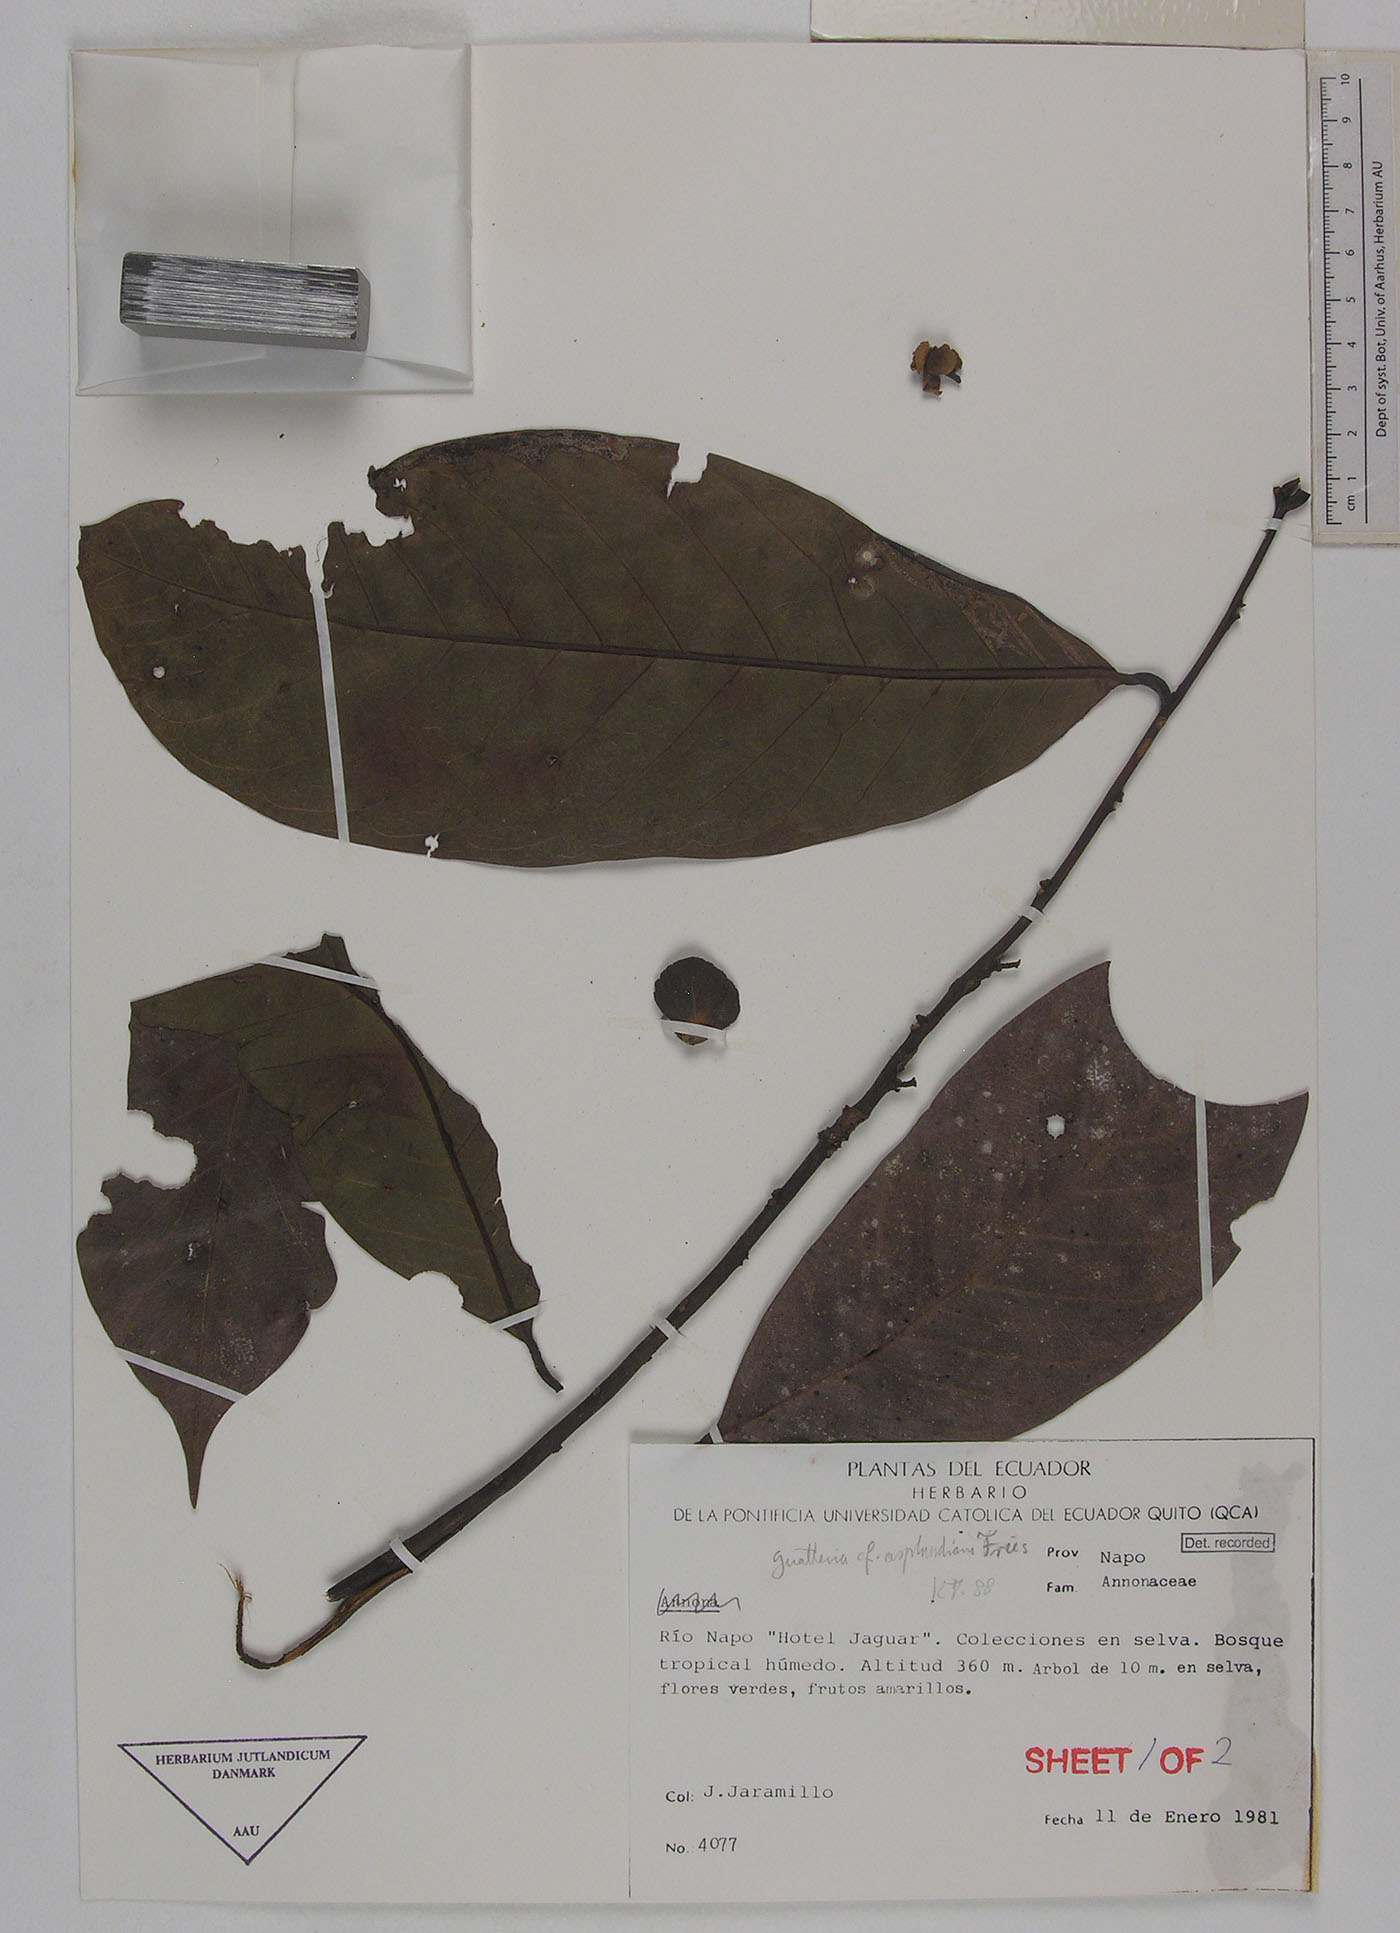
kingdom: Plantae
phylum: Tracheophyta
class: Magnoliopsida
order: Magnoliales
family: Annonaceae
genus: Guatteria
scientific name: Guatteria punctata
